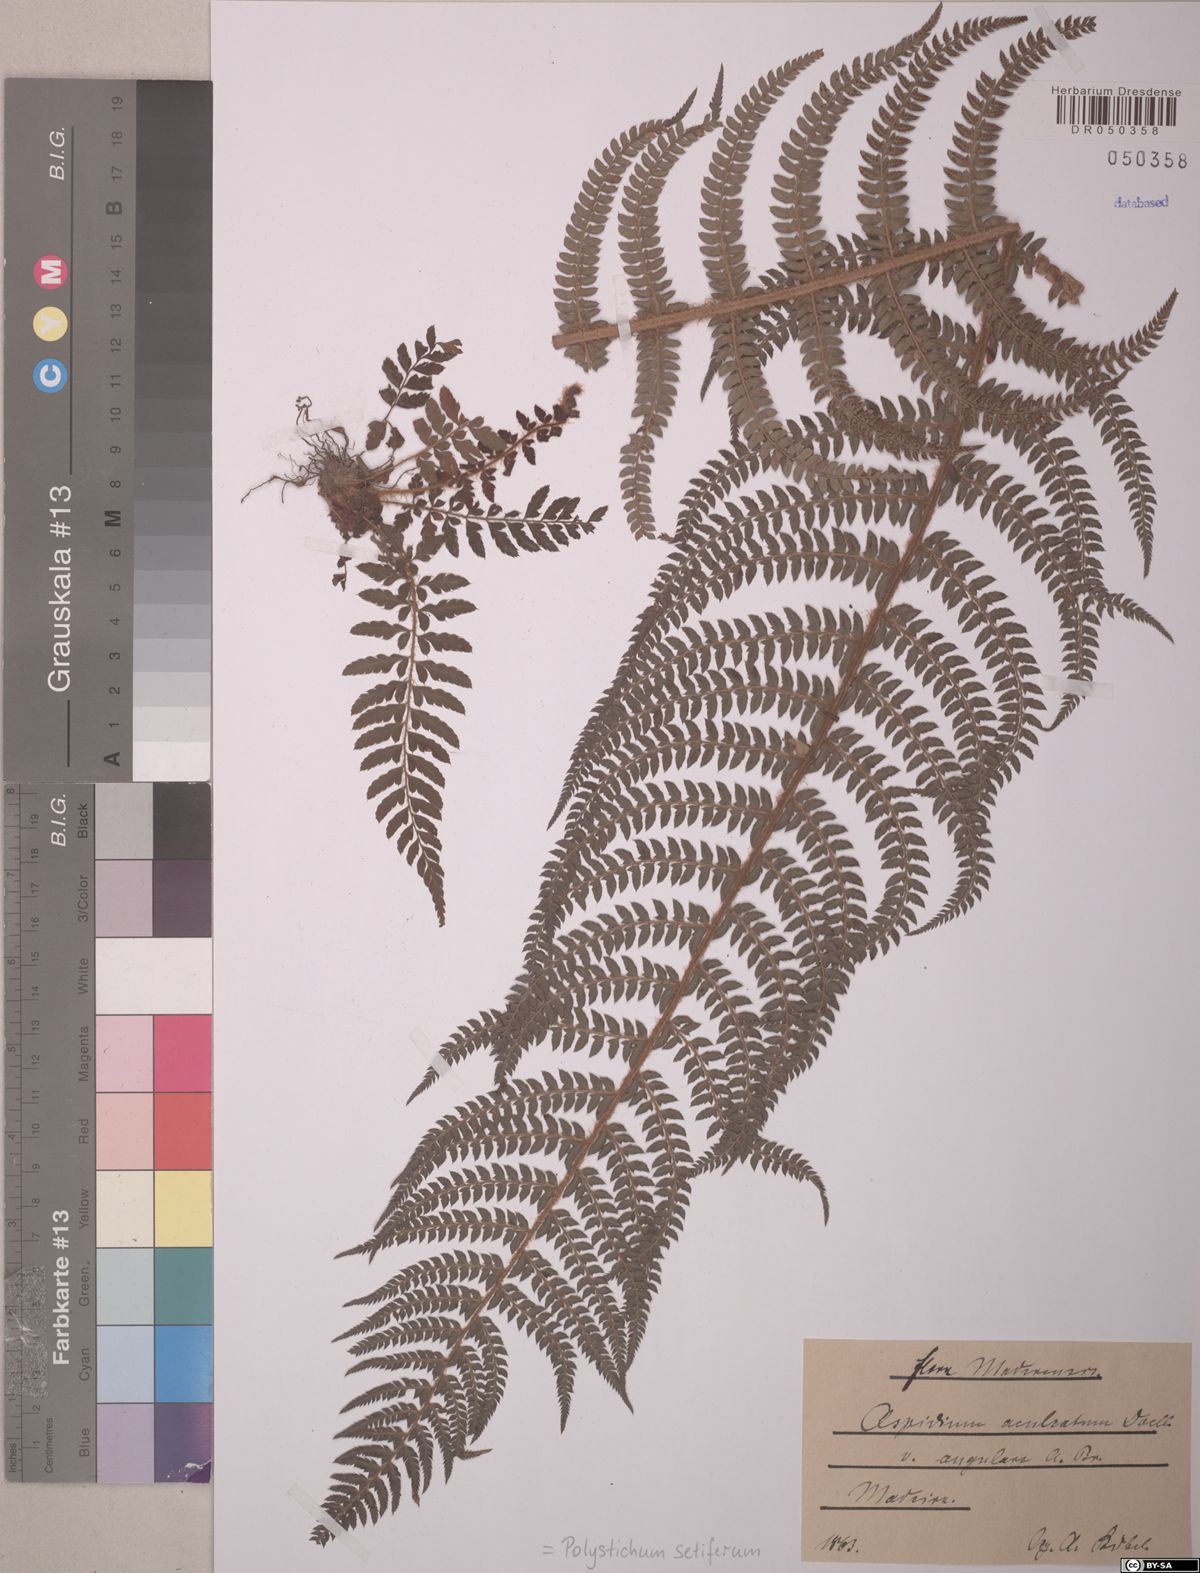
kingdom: Plantae
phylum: Tracheophyta
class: Polypodiopsida
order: Polypodiales
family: Dryopteridaceae
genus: Polystichum
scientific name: Polystichum setiferum
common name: Soft shield-fern
